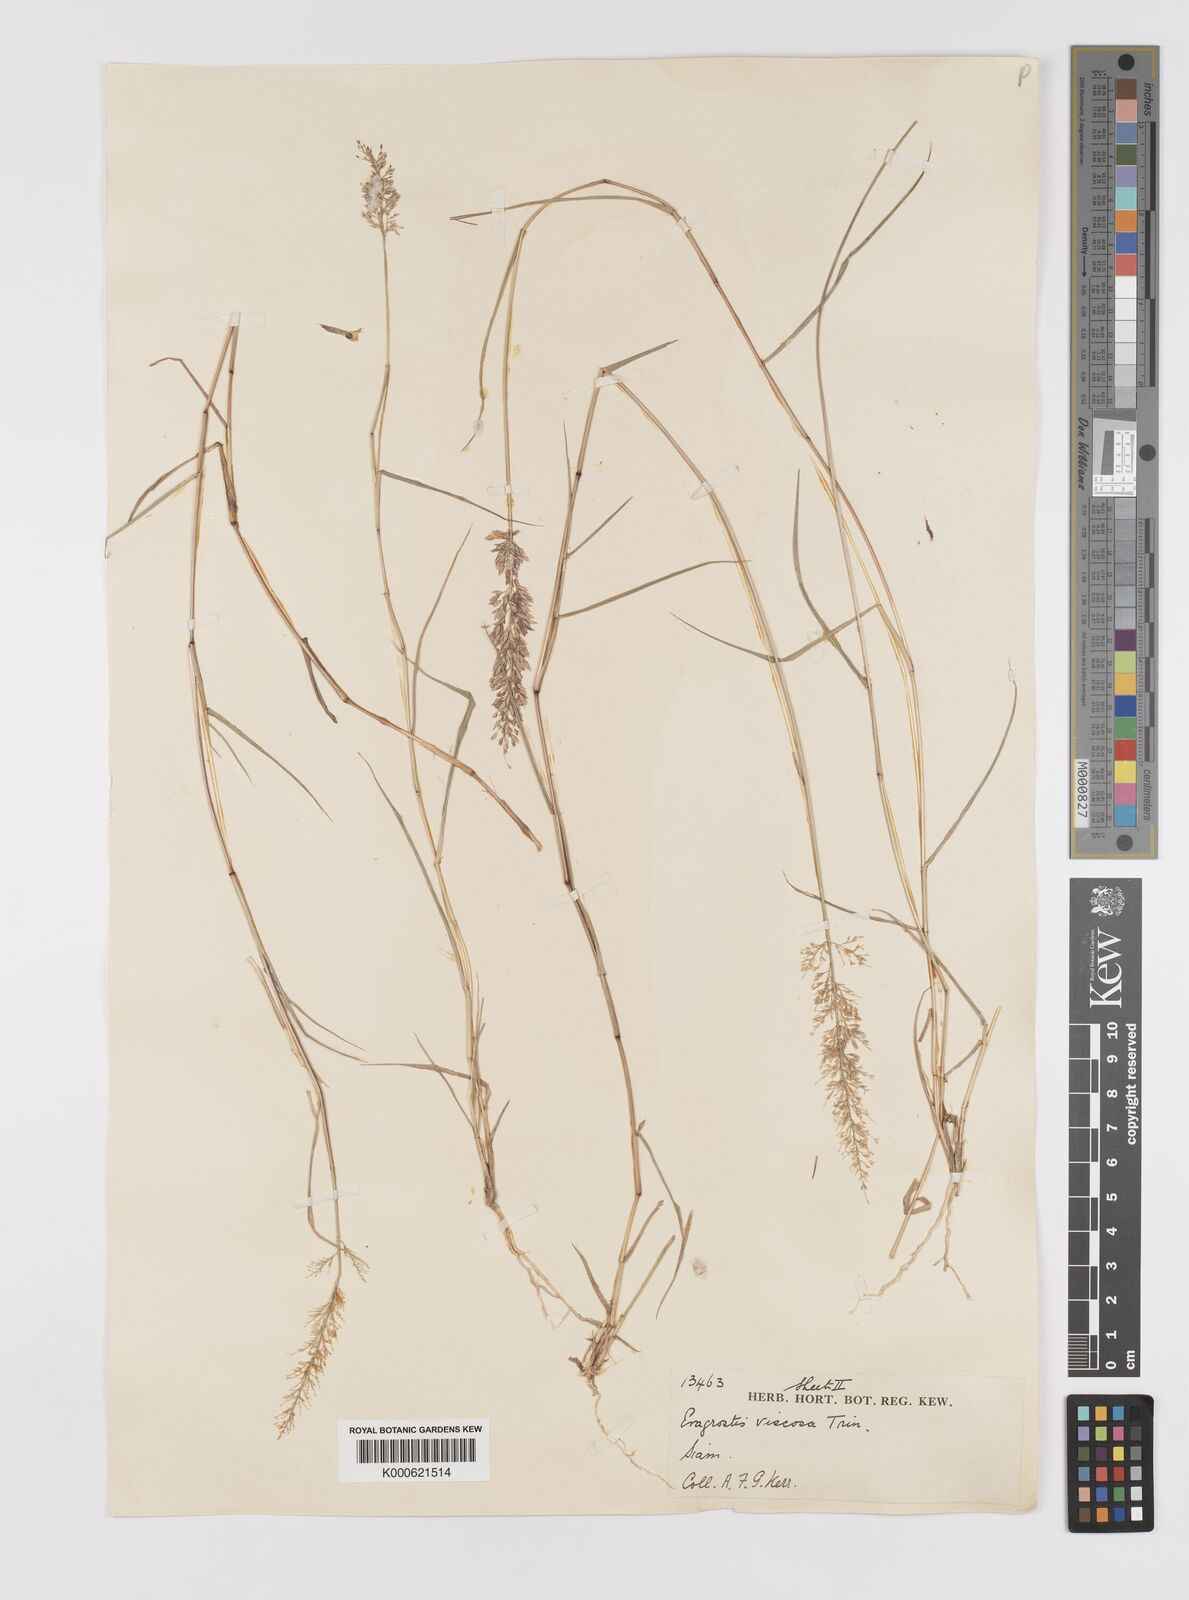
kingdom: Plantae
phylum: Tracheophyta
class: Liliopsida
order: Poales
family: Poaceae
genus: Eragrostis
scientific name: Eragrostis viscosa
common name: Sticky love grass
